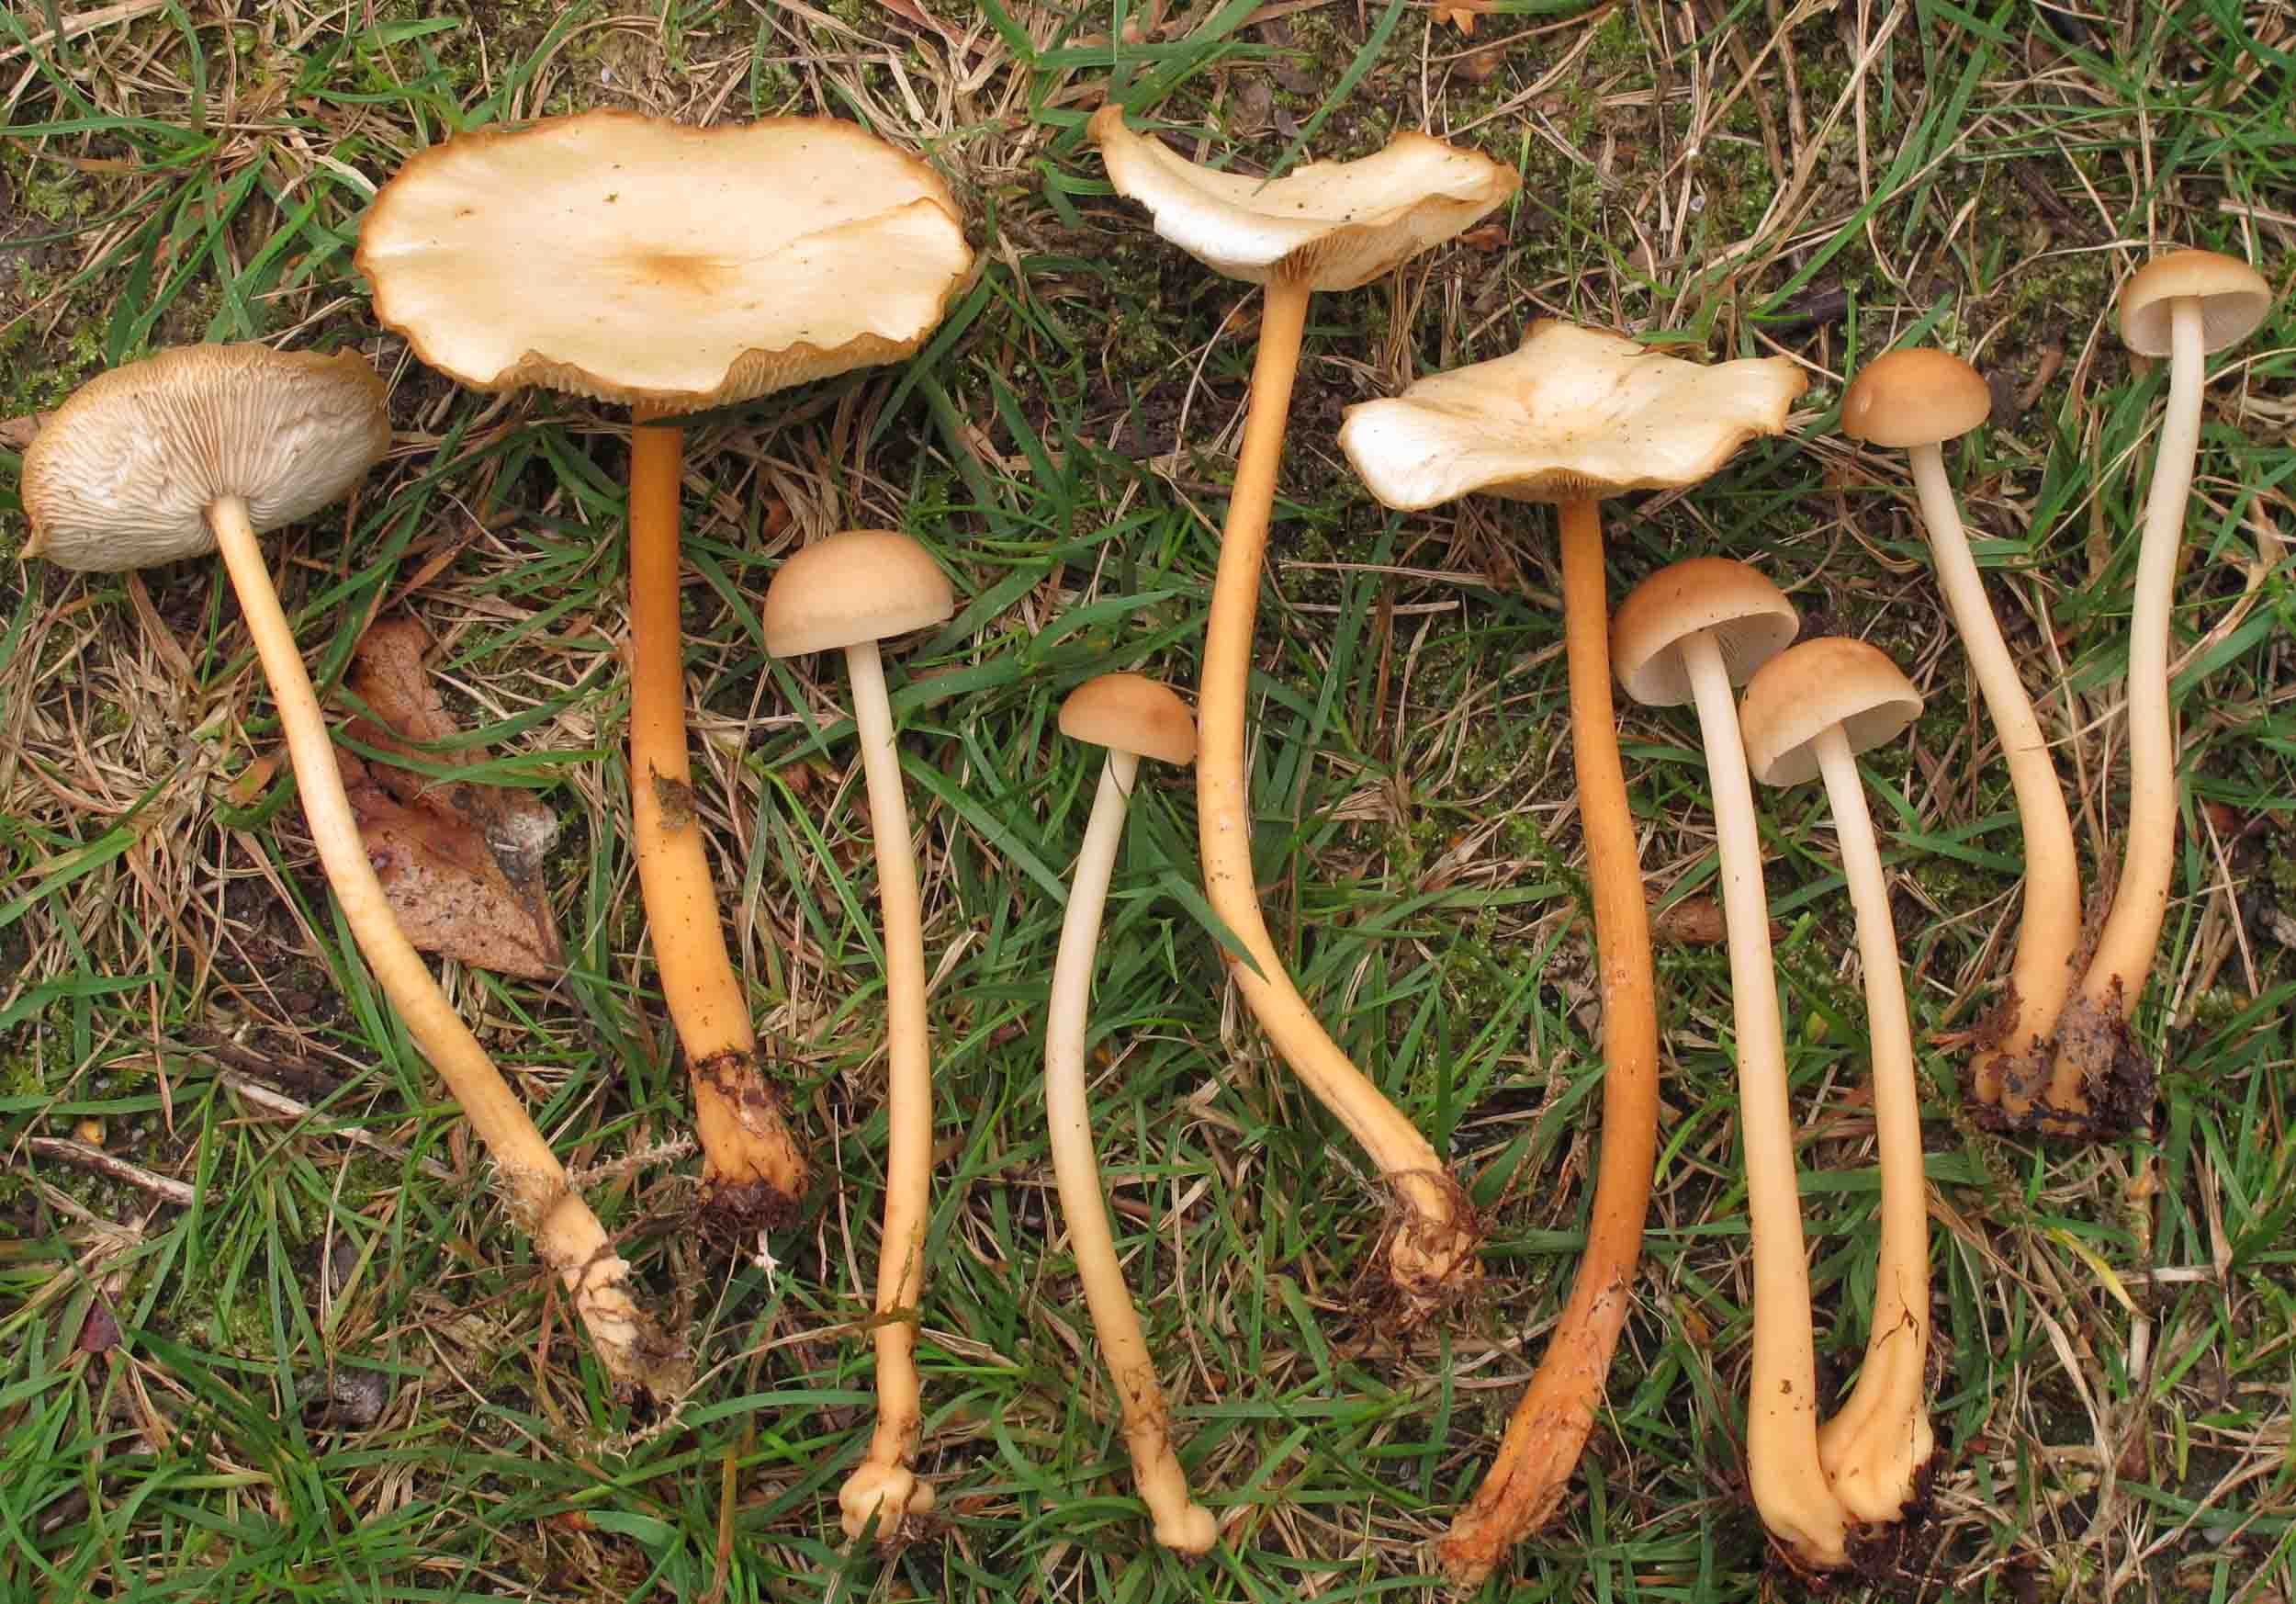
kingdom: Fungi
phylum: Basidiomycota
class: Agaricomycetes
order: Agaricales
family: Omphalotaceae
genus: Gymnopus
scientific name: Gymnopus aquosus
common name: bleg fladhat
